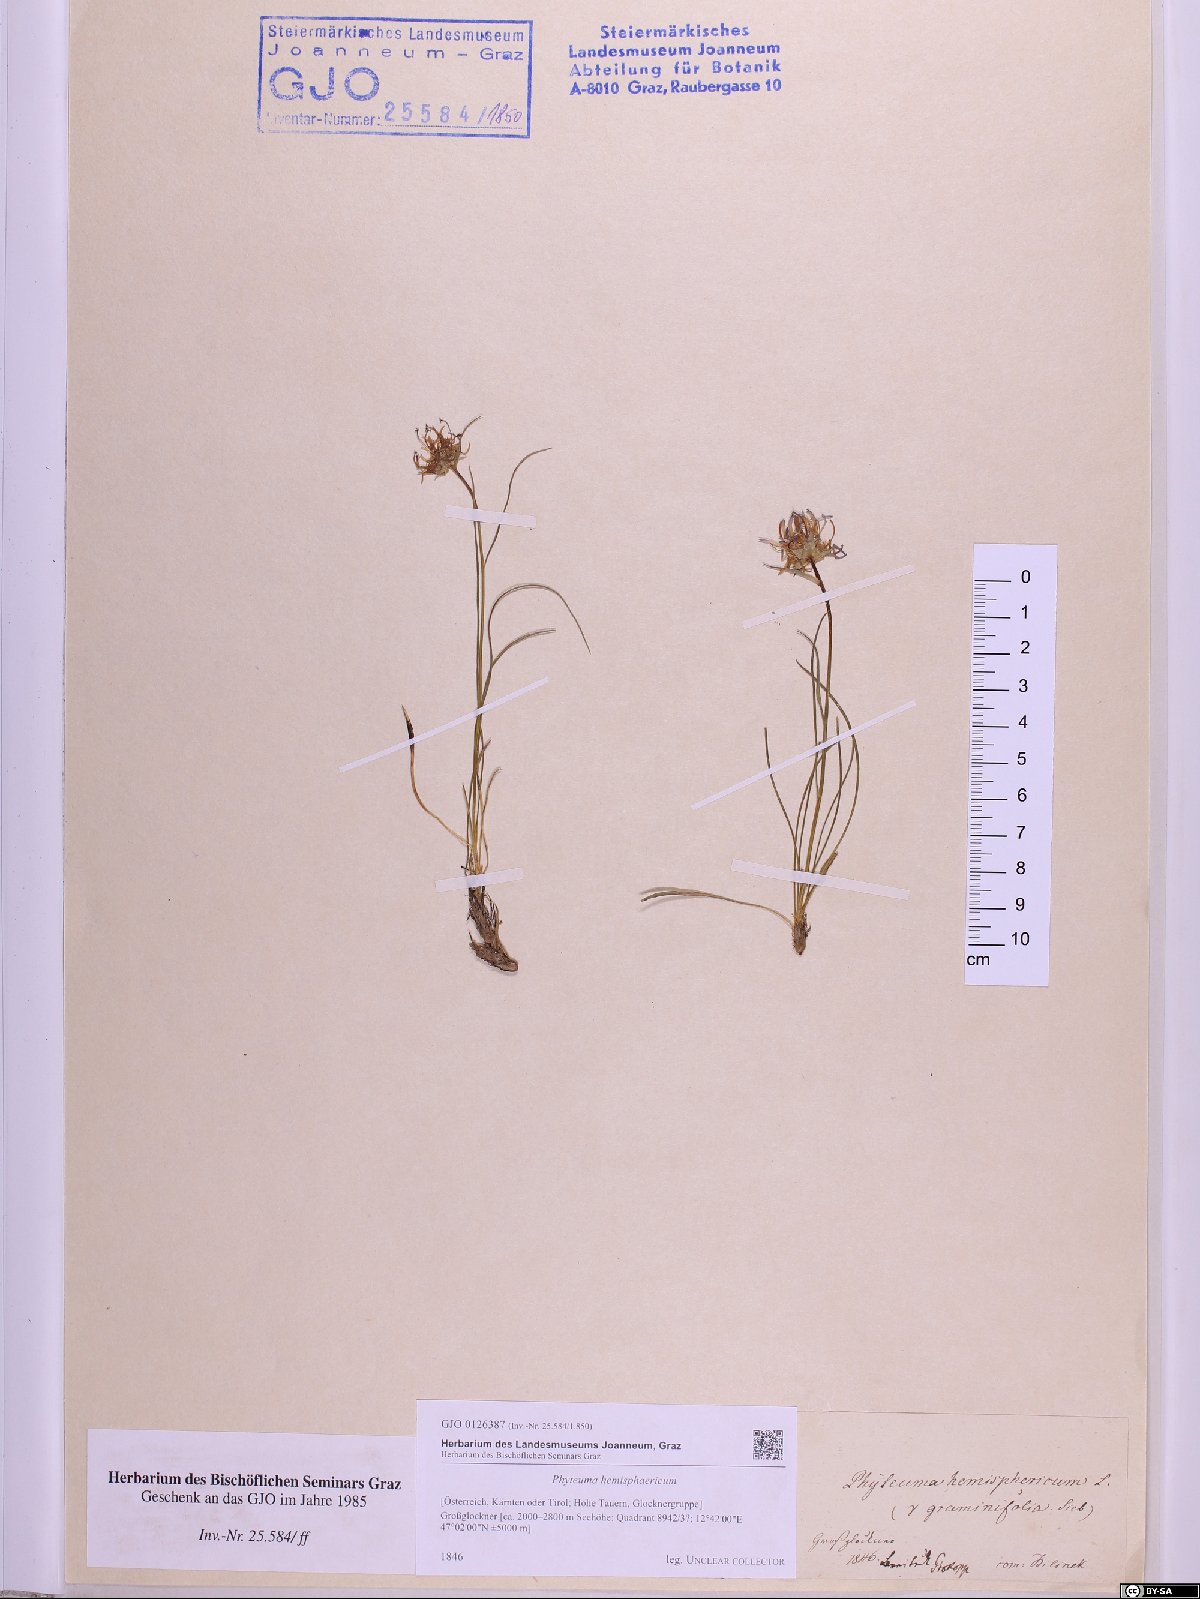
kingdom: Plantae
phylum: Tracheophyta
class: Magnoliopsida
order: Asterales
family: Campanulaceae
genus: Phyteuma
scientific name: Phyteuma hemisphaericum
